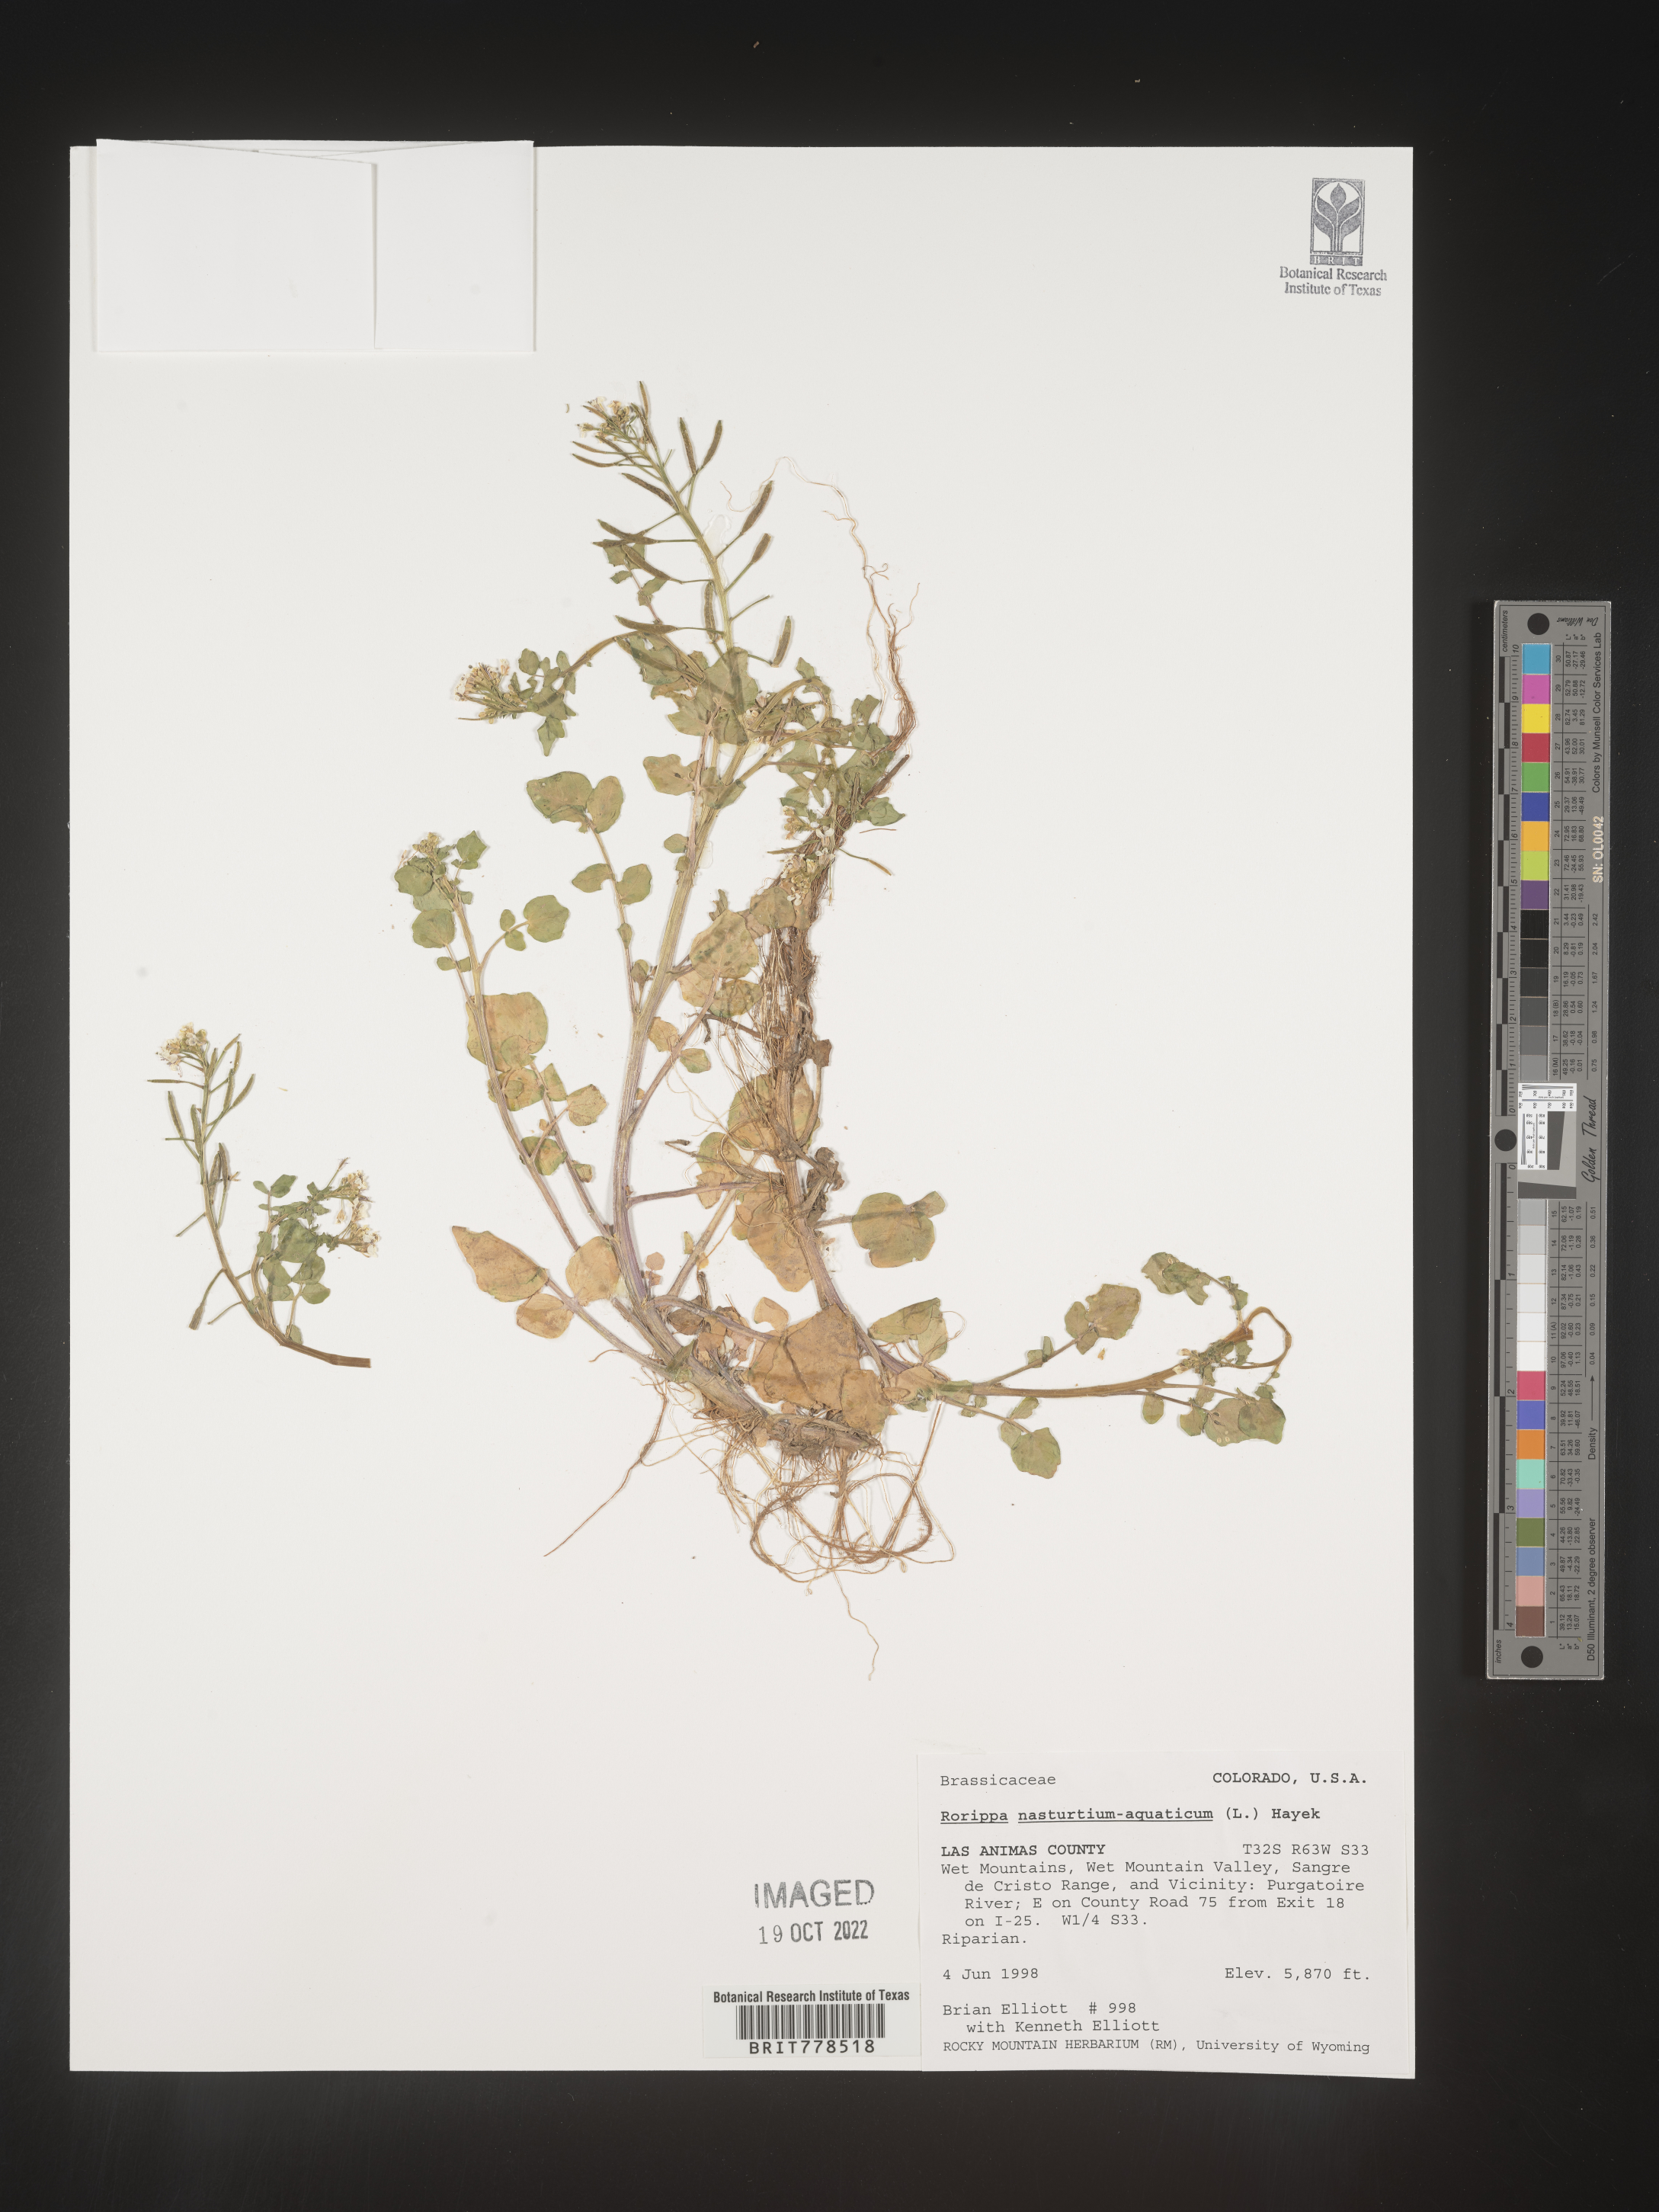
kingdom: Plantae
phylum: Tracheophyta
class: Magnoliopsida
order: Brassicales
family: Brassicaceae
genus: Nasturtium
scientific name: Nasturtium officinale
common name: Watercress
